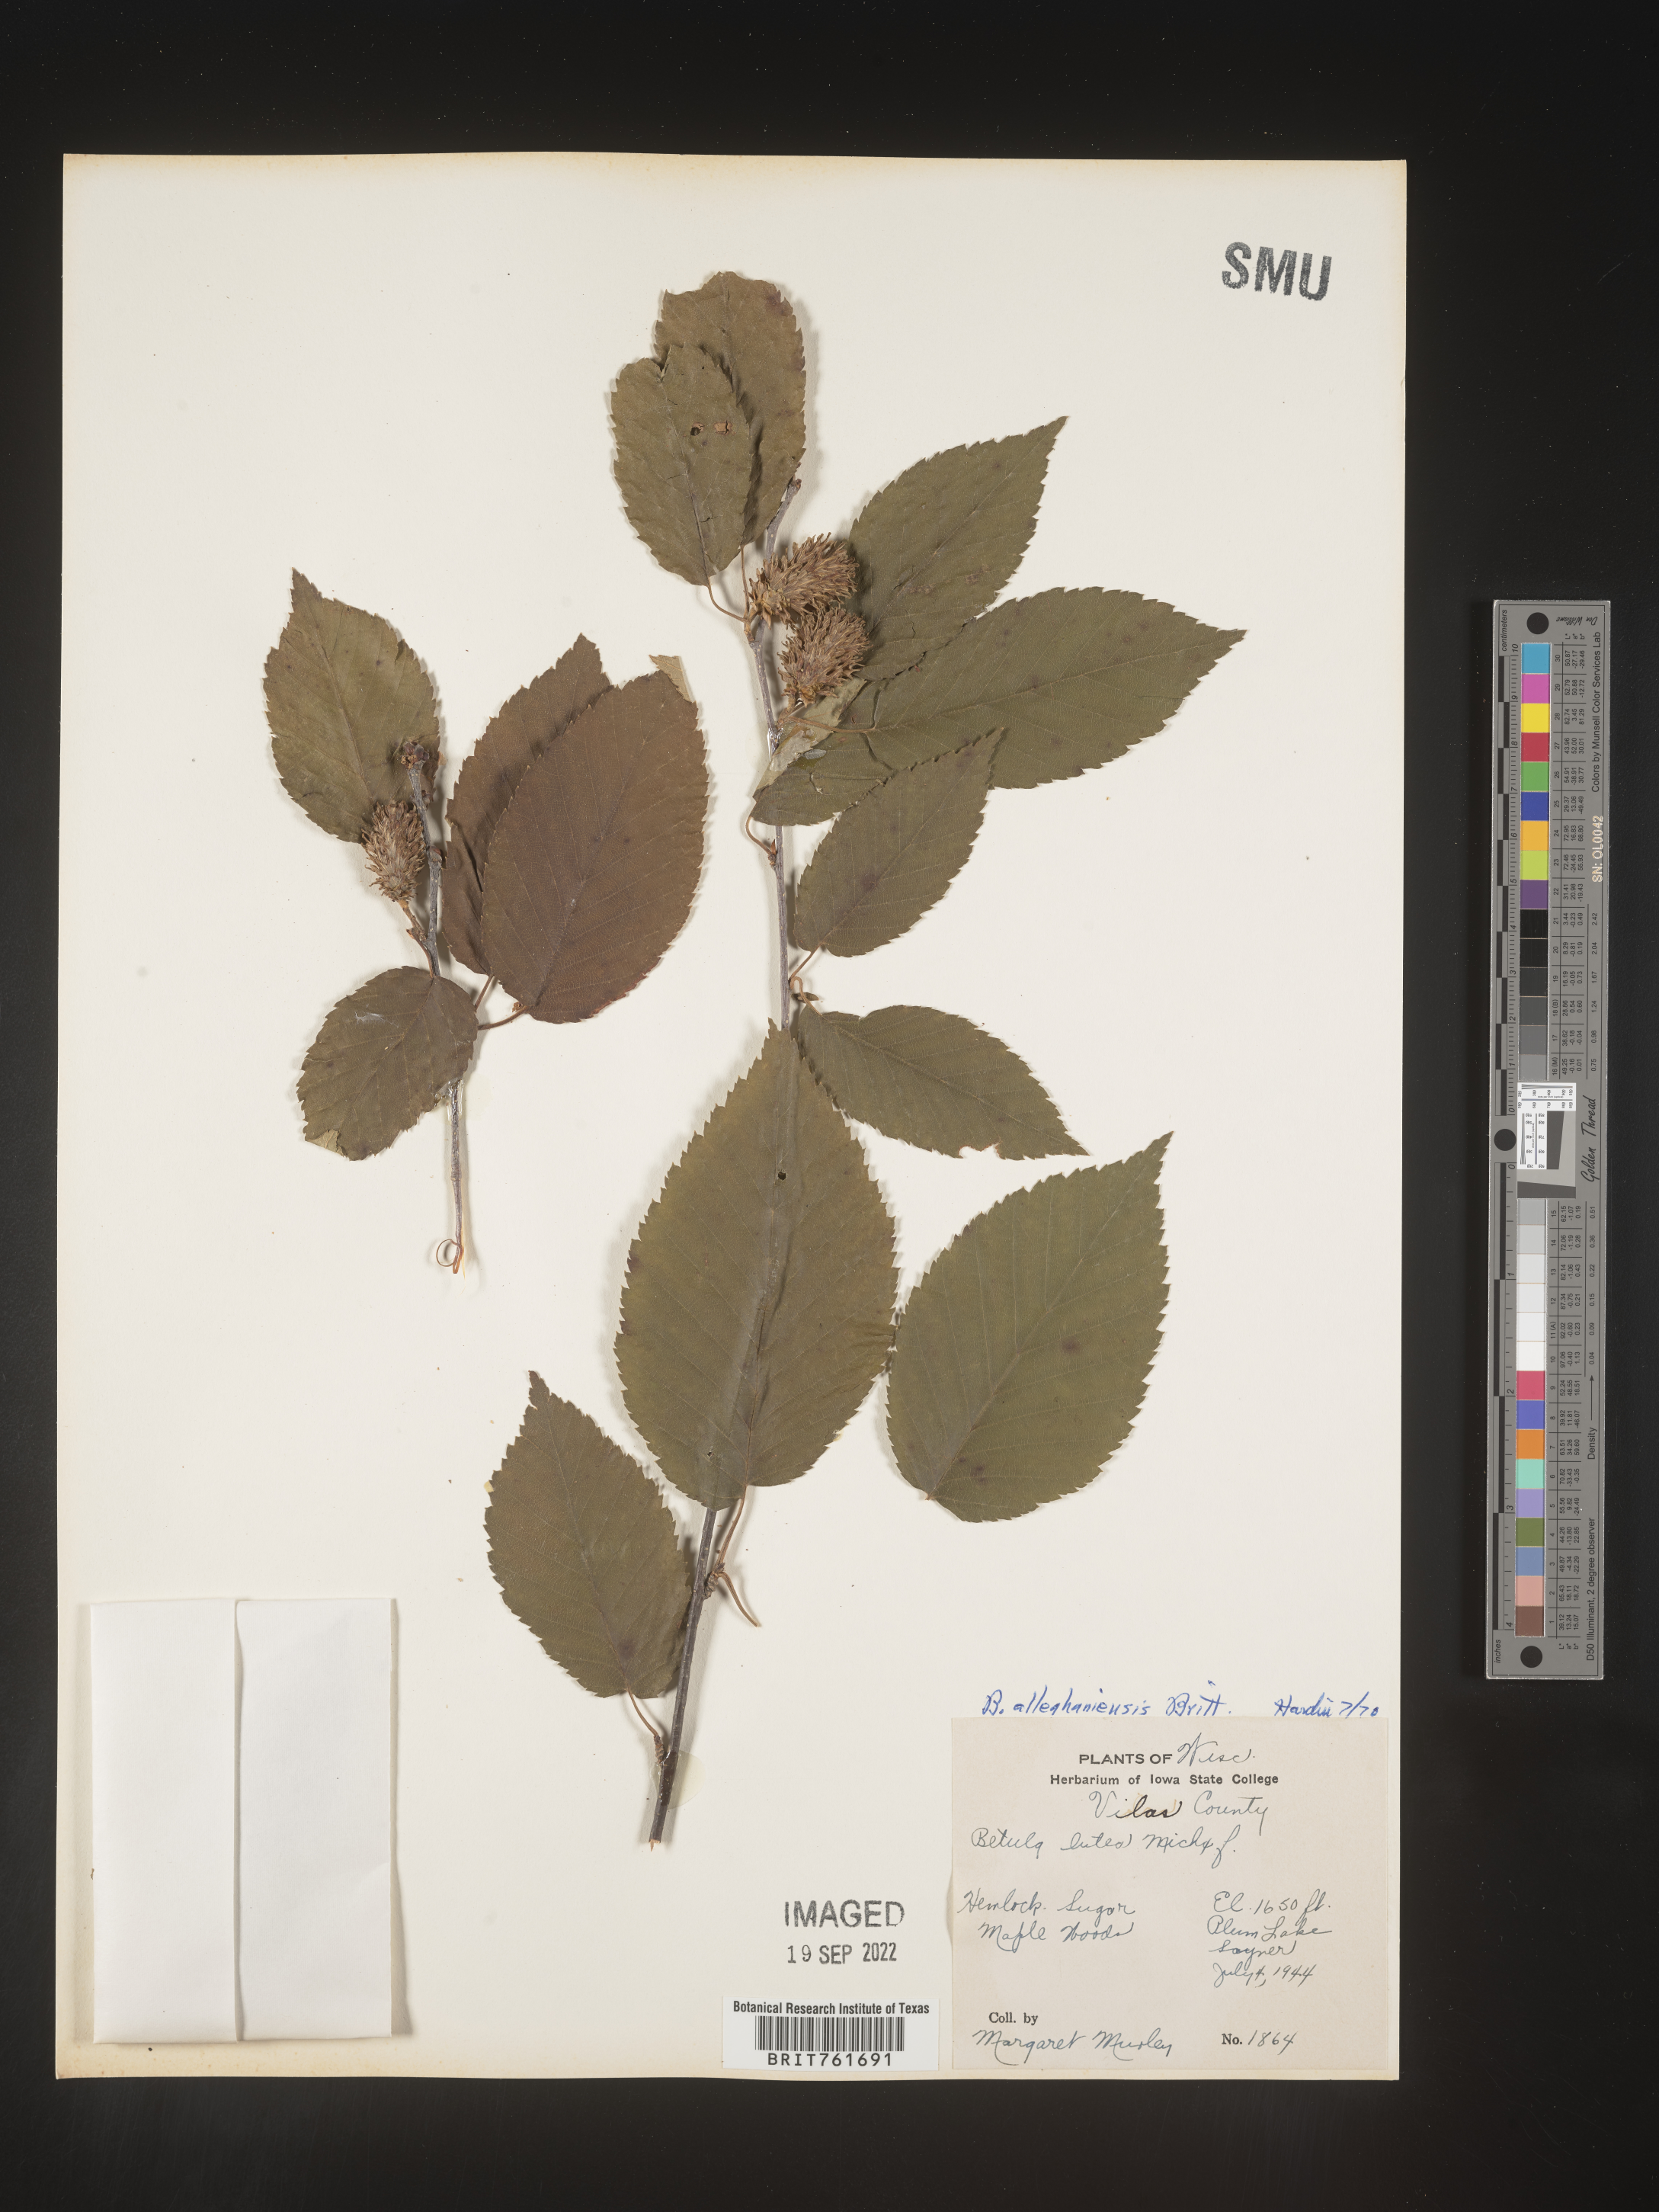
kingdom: Plantae
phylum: Tracheophyta
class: Magnoliopsida
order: Fagales
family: Betulaceae
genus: Betula
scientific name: Betula alleghaniensis
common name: Yellow birch
